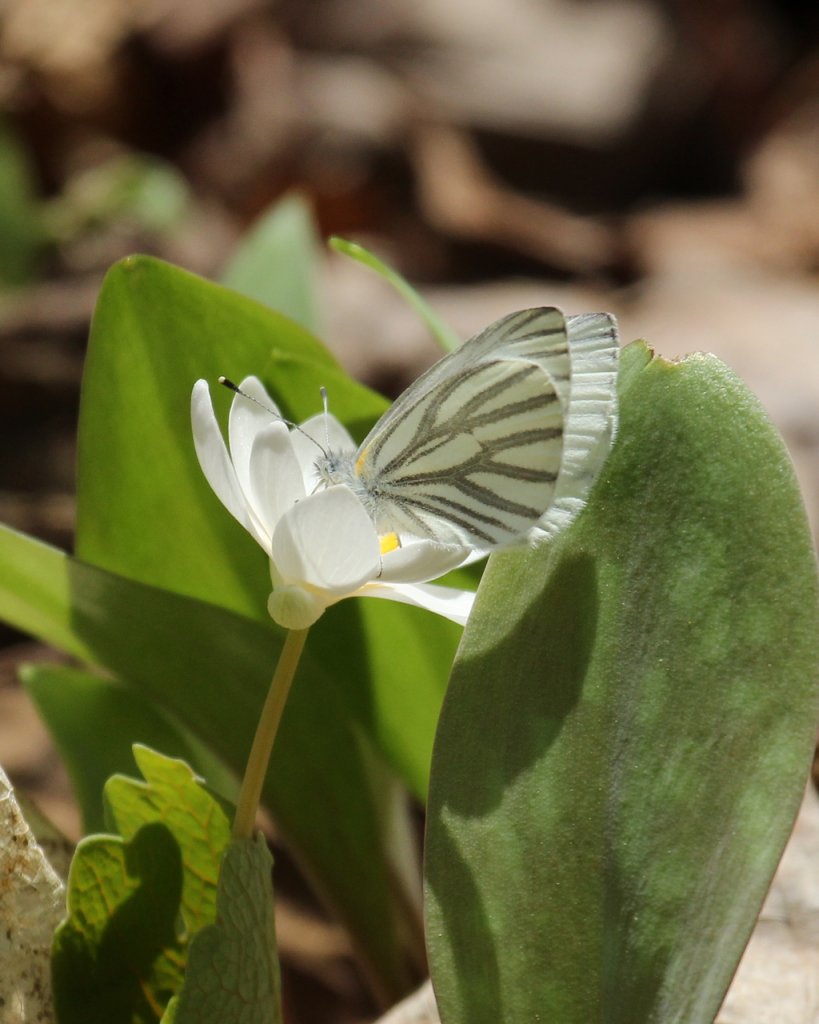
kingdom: Animalia
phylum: Arthropoda
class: Insecta
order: Lepidoptera
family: Pieridae
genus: Pieris
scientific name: Pieris oleracea
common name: Mustard White
